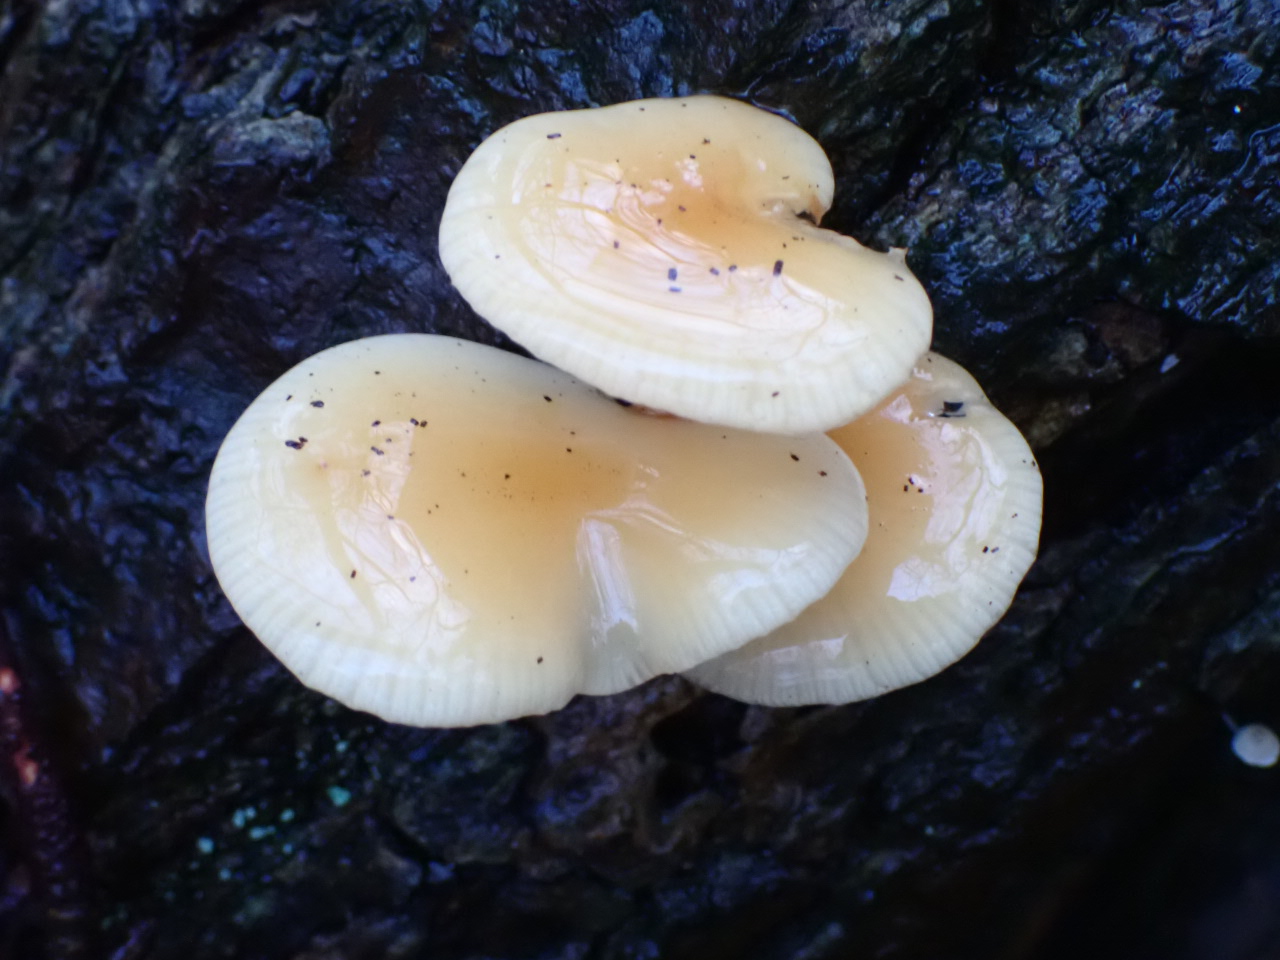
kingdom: Fungi
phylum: Basidiomycota
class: Agaricomycetes
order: Agaricales
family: Physalacriaceae
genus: Flammulina
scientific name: Flammulina
